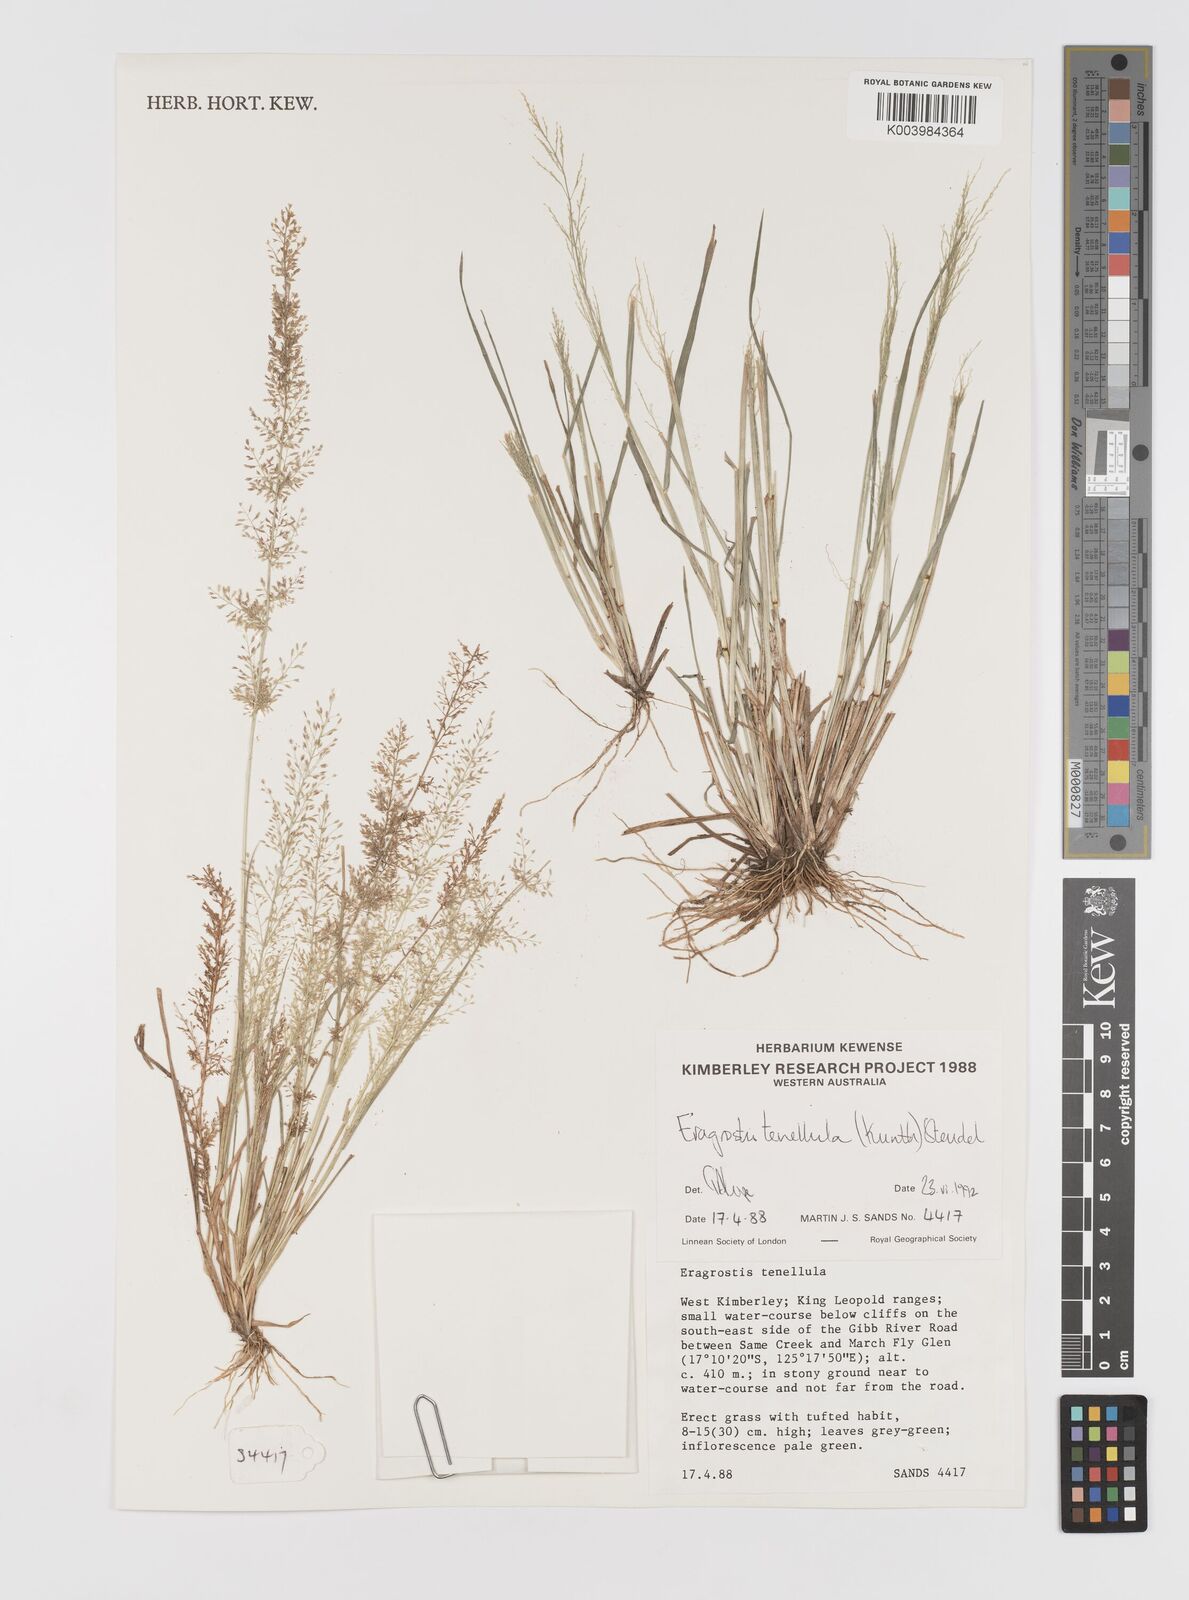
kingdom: Plantae
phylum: Tracheophyta
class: Liliopsida
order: Poales
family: Poaceae
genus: Eragrostis
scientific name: Eragrostis tenellula
